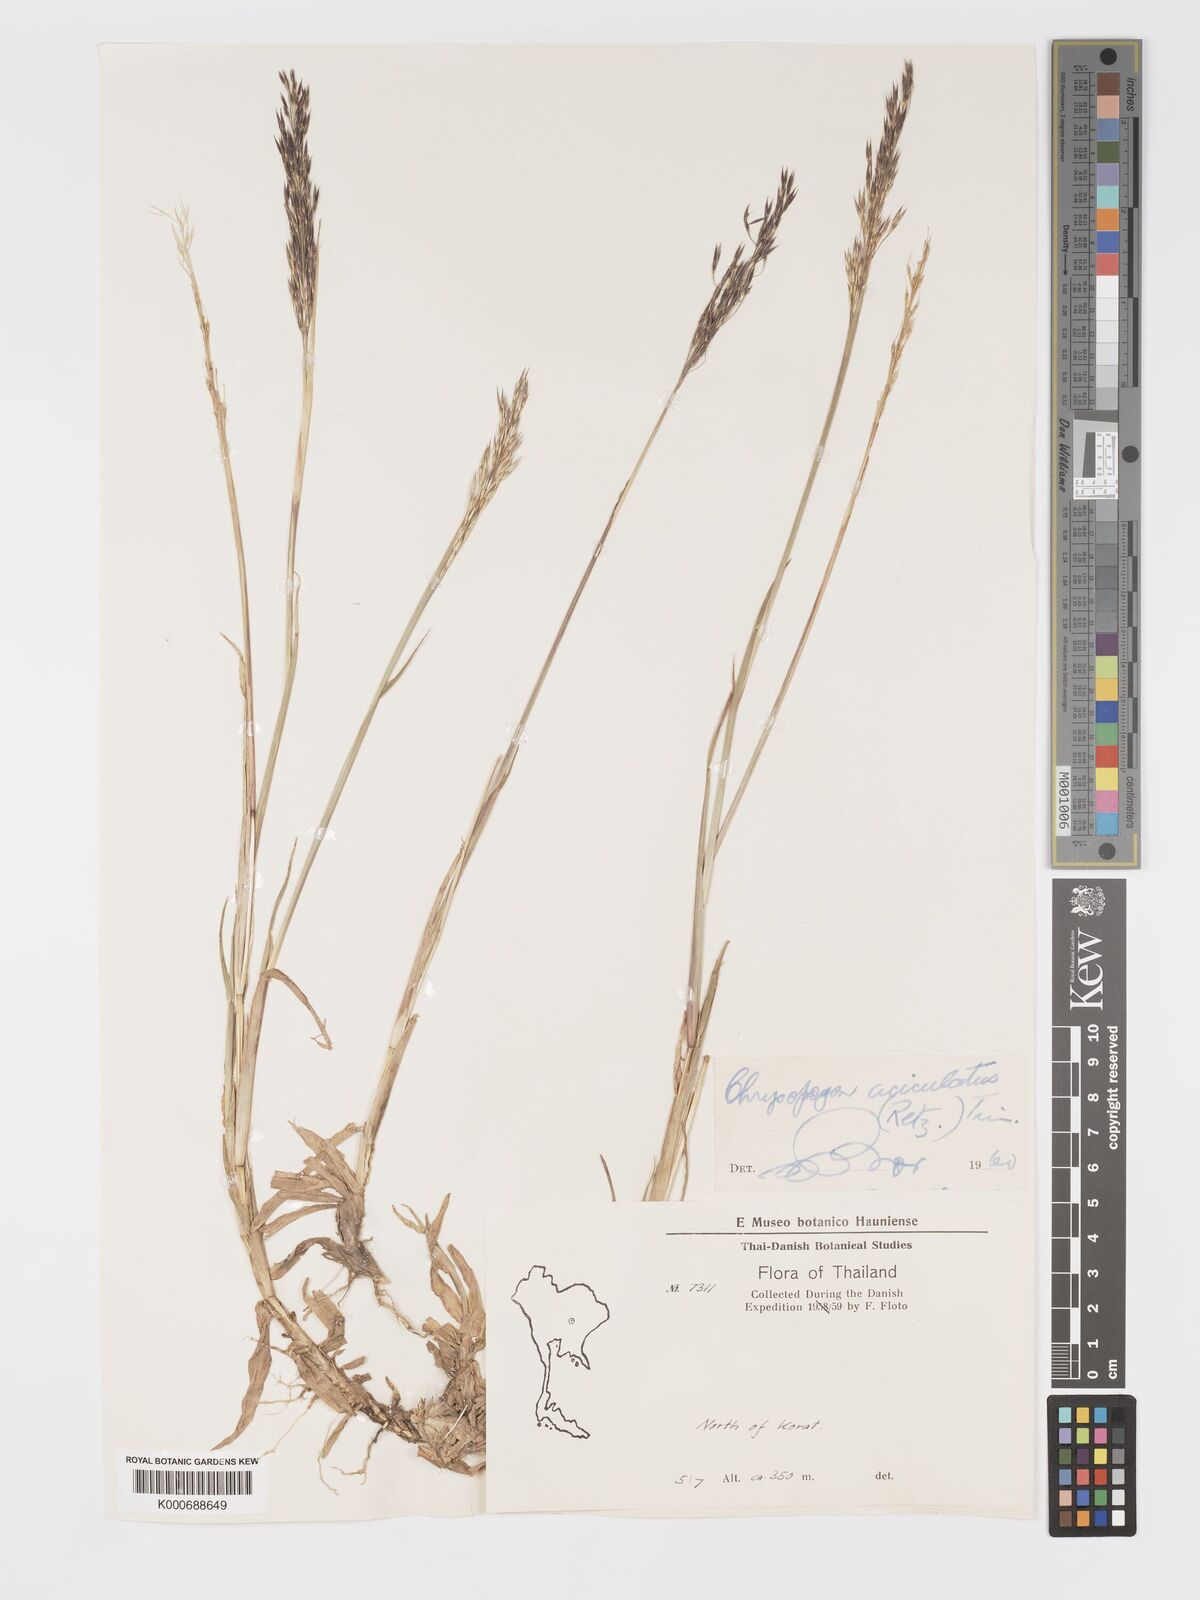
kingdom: Plantae
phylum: Tracheophyta
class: Liliopsida
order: Poales
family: Poaceae
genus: Chrysopogon
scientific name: Chrysopogon aciculatus
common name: Pilipiliula
